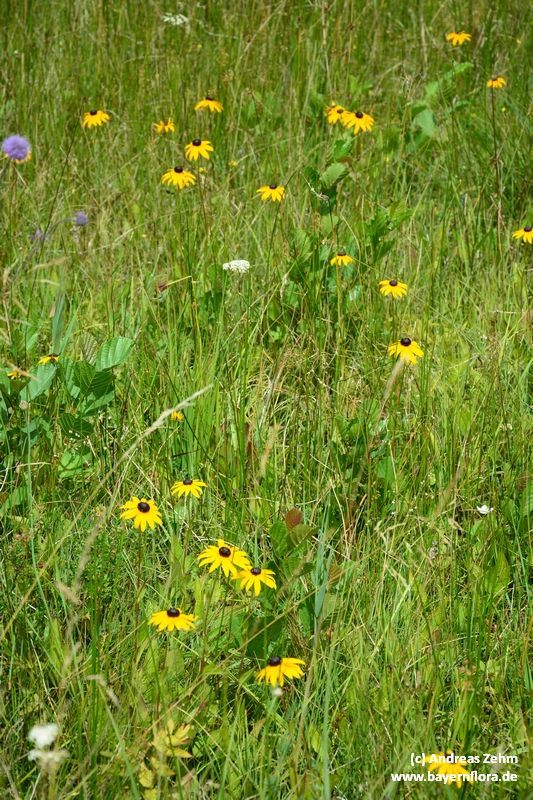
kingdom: Plantae
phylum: Tracheophyta
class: Magnoliopsida
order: Asterales
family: Asteraceae
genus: Rudbeckia
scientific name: Rudbeckia hirta
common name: Black-eyed-susan
